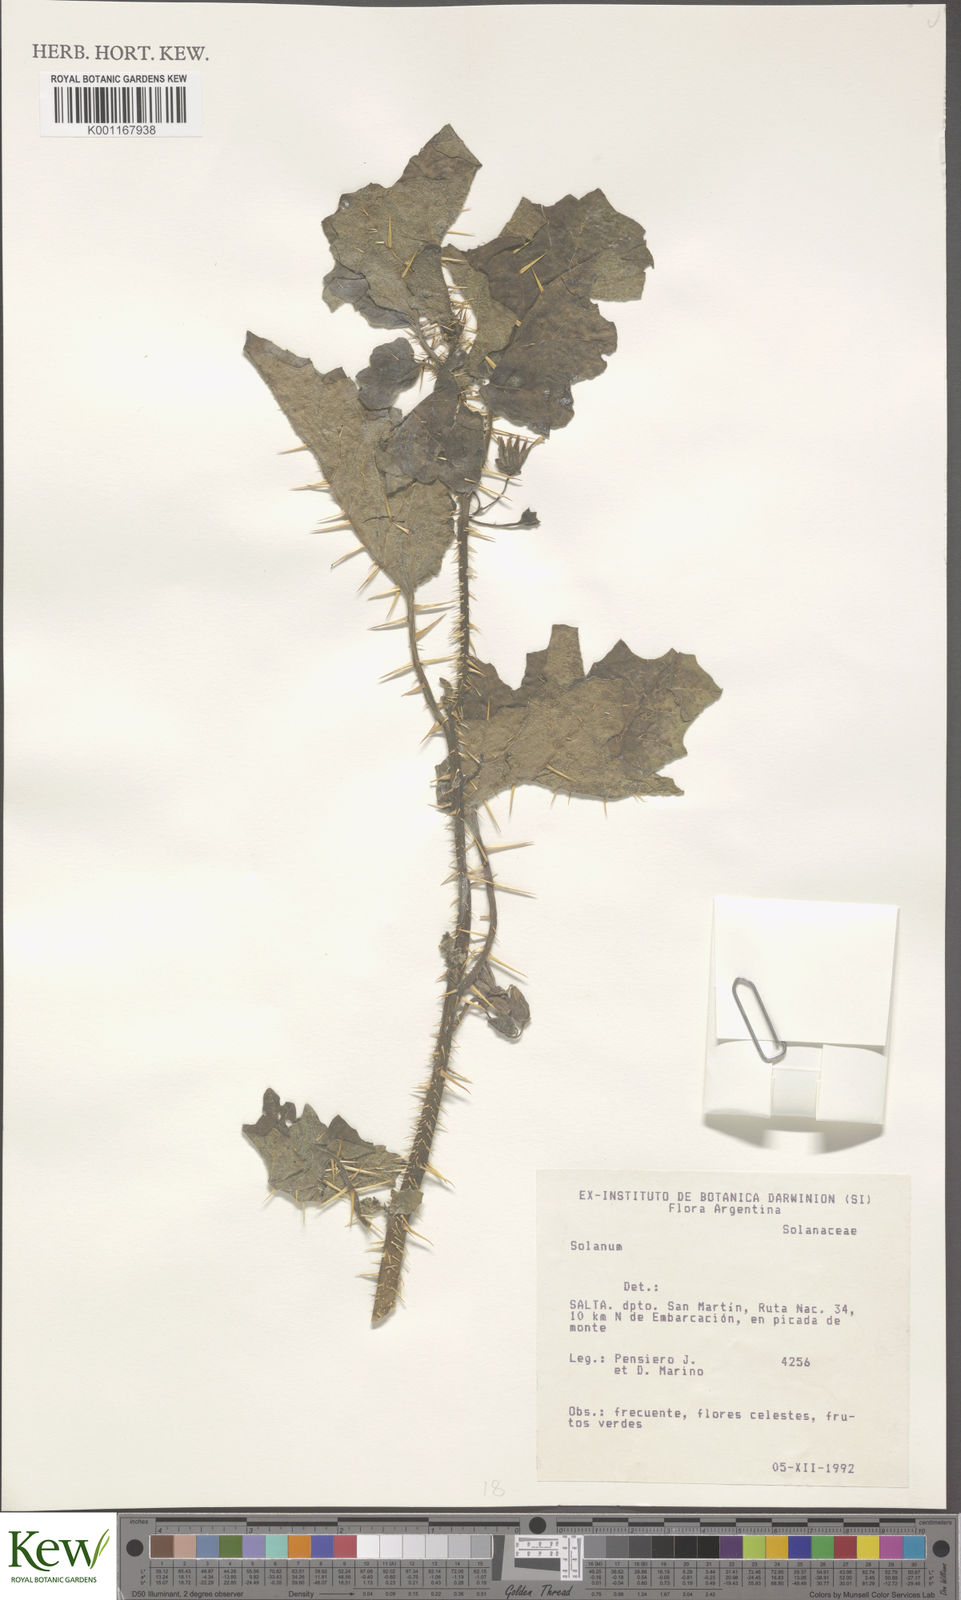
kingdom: Plantae
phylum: Tracheophyta
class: Magnoliopsida
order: Solanales
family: Solanaceae
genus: Solanum
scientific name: Solanum
